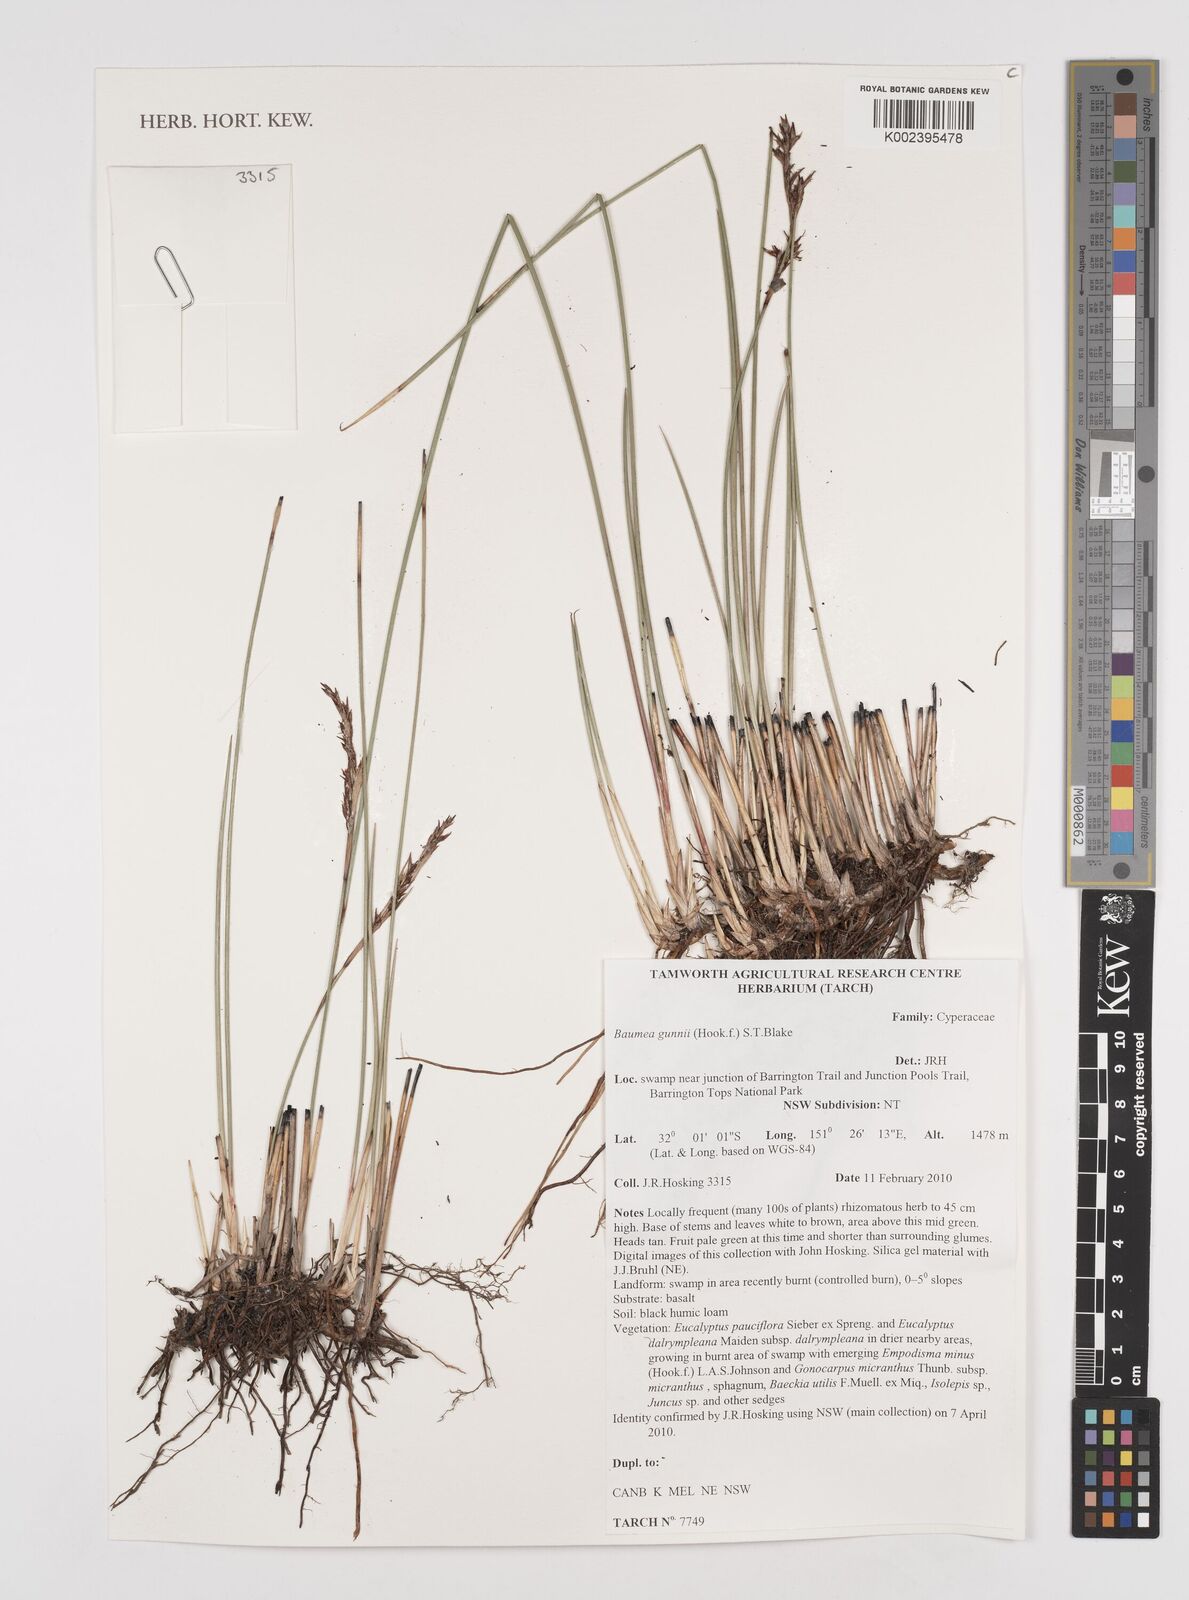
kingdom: Plantae
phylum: Tracheophyta
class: Liliopsida
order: Poales
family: Cyperaceae
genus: Machaerina
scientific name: Machaerina gunnii
